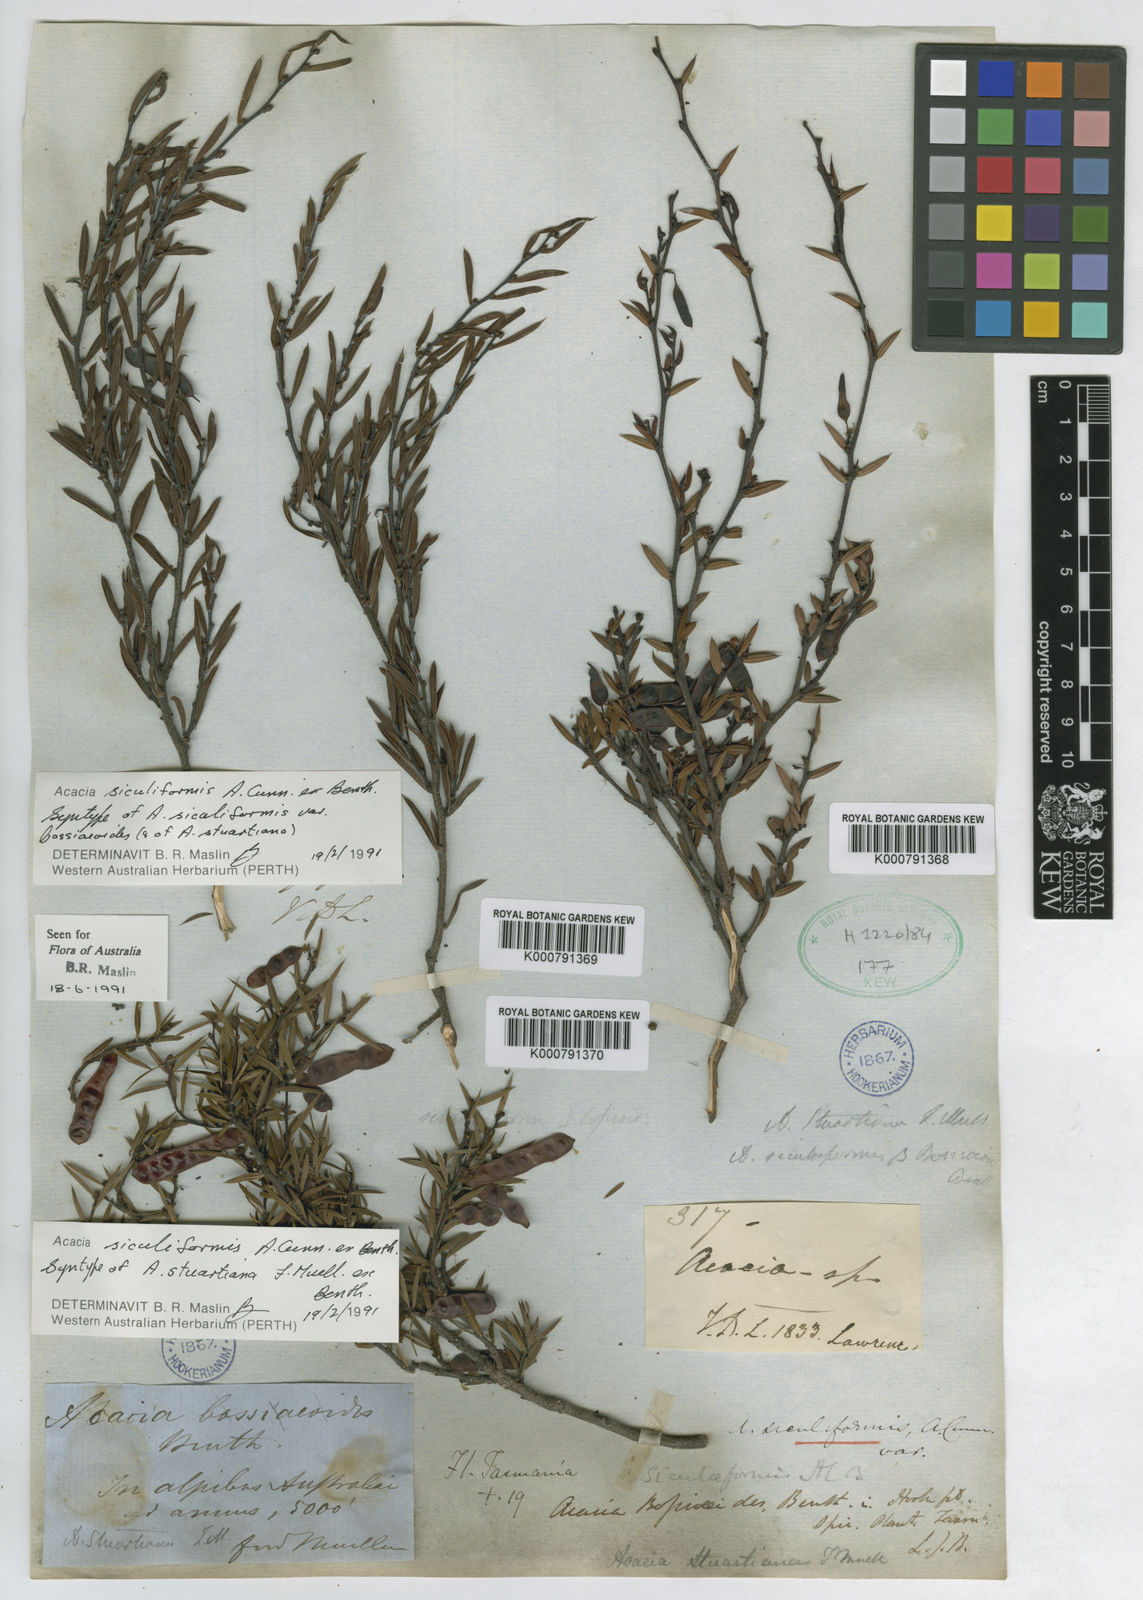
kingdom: Plantae
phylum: Tracheophyta
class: Magnoliopsida
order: Fabales
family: Fabaceae
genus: Acacia
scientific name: Acacia
